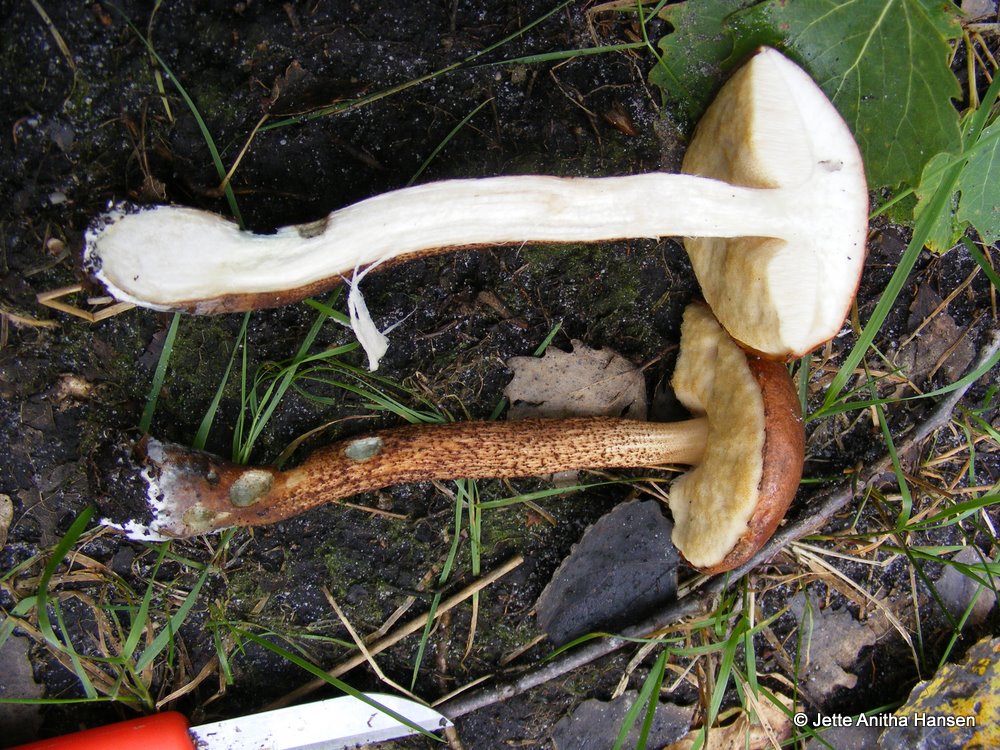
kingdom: Fungi
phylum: Basidiomycota
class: Agaricomycetes
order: Boletales
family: Boletaceae
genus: Leccinum
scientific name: Leccinum aurantiacum
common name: rustrød skælrørhat
